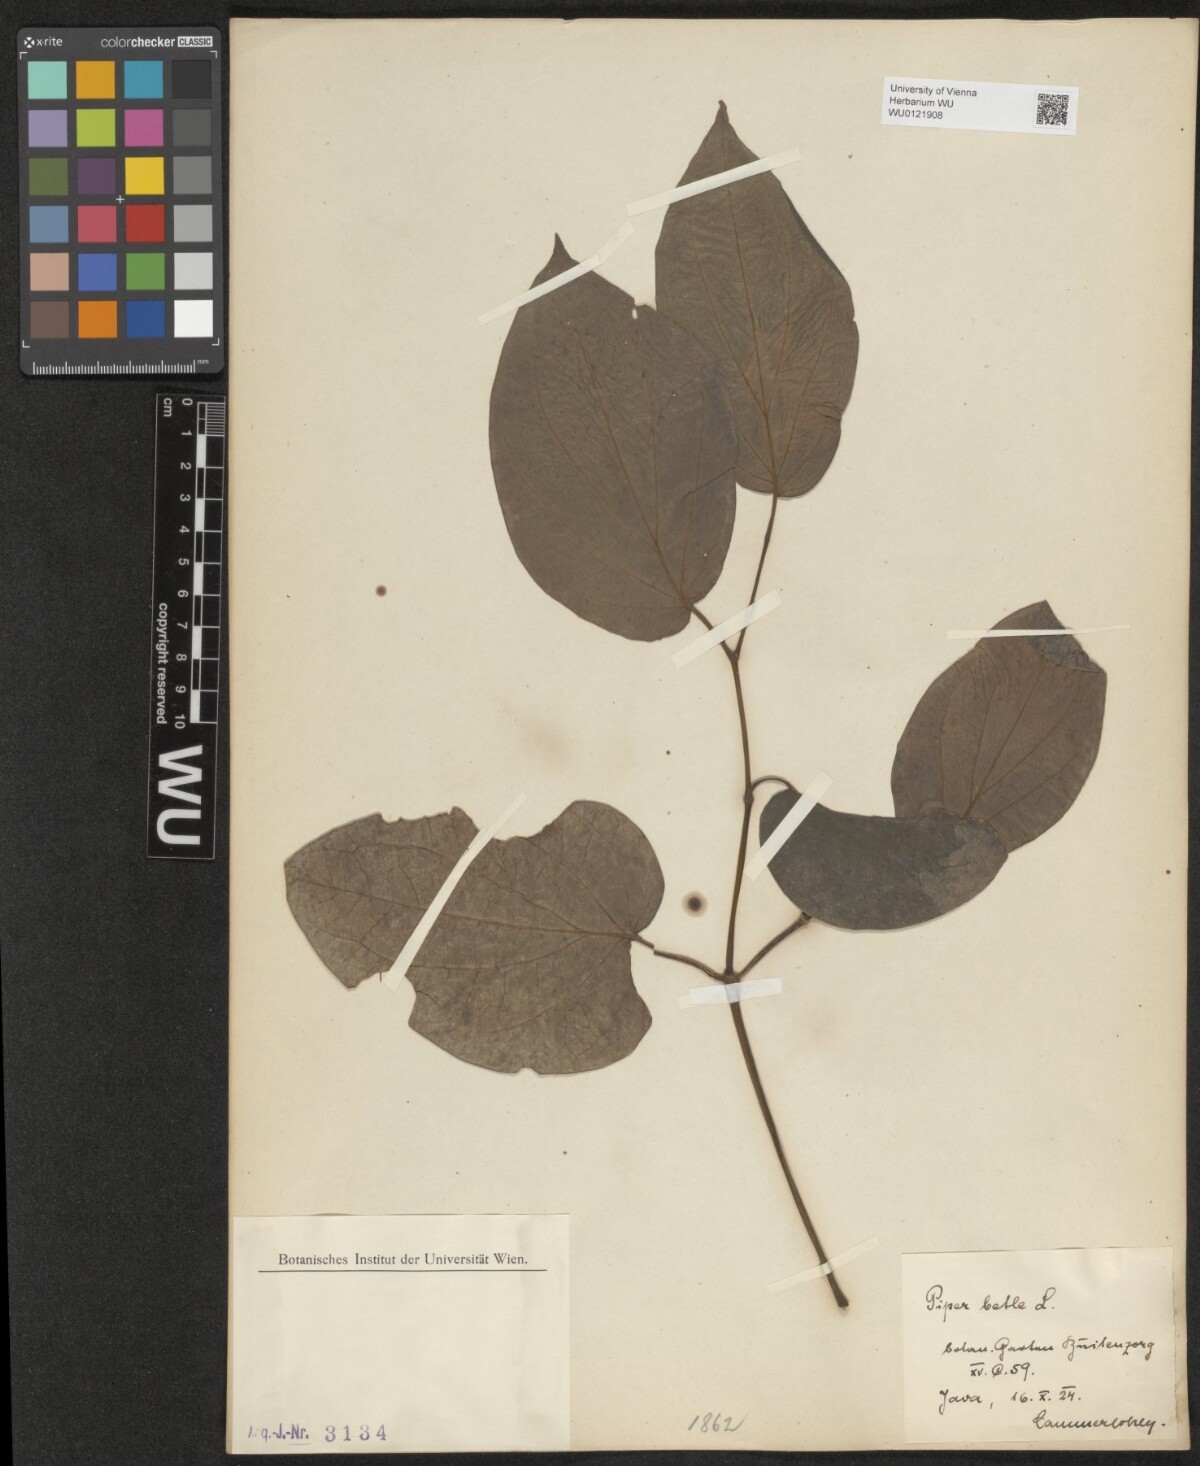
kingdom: Plantae
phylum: Tracheophyta
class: Magnoliopsida
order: Piperales
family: Piperaceae
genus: Piper
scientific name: Piper betle
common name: Betel pepper
